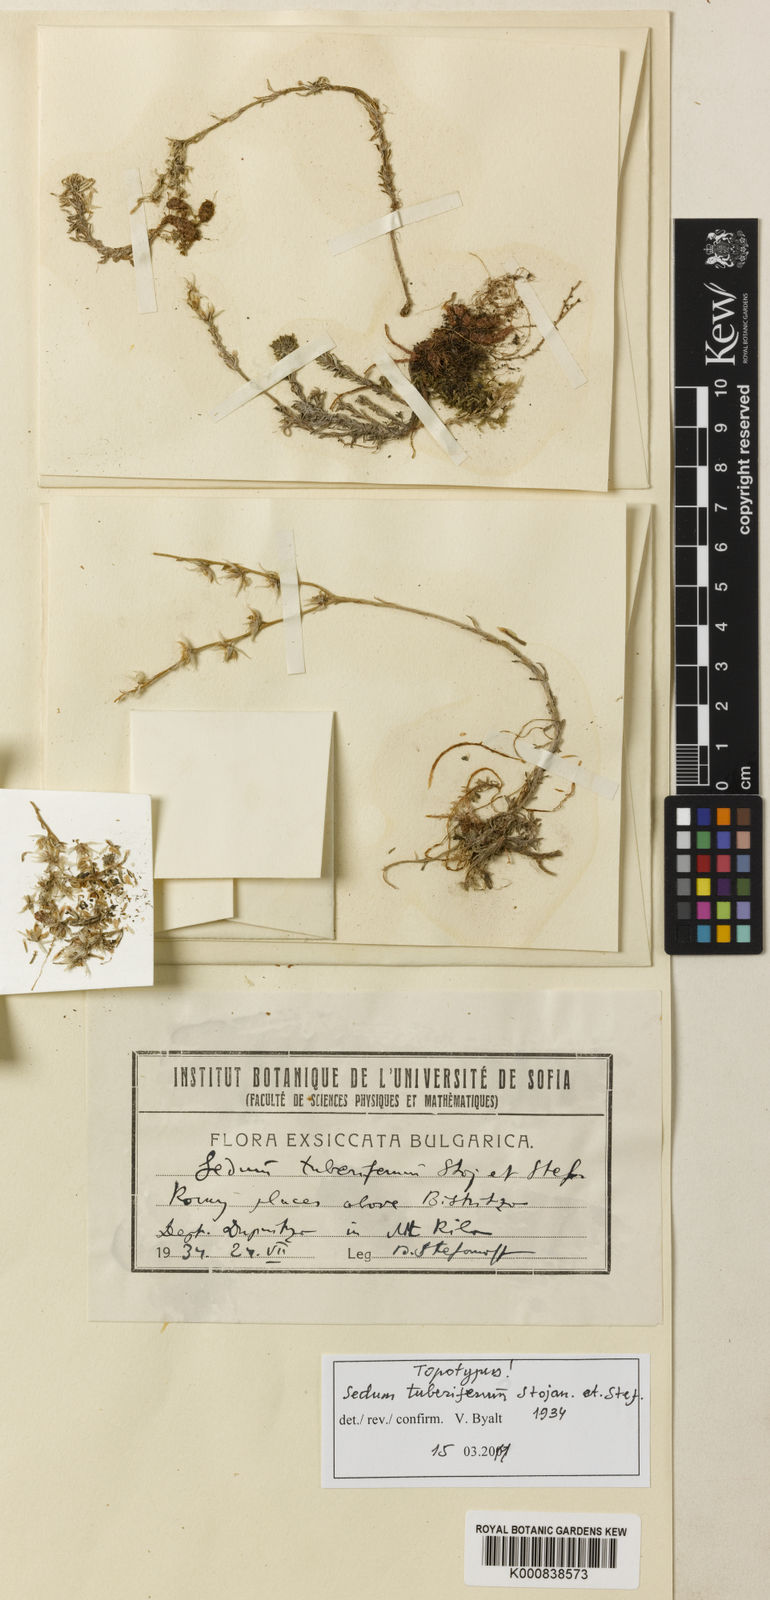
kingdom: Plantae
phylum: Tracheophyta
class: Magnoliopsida
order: Saxifragales
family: Crassulaceae
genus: Sedum
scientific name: Sedum tuberiferum
